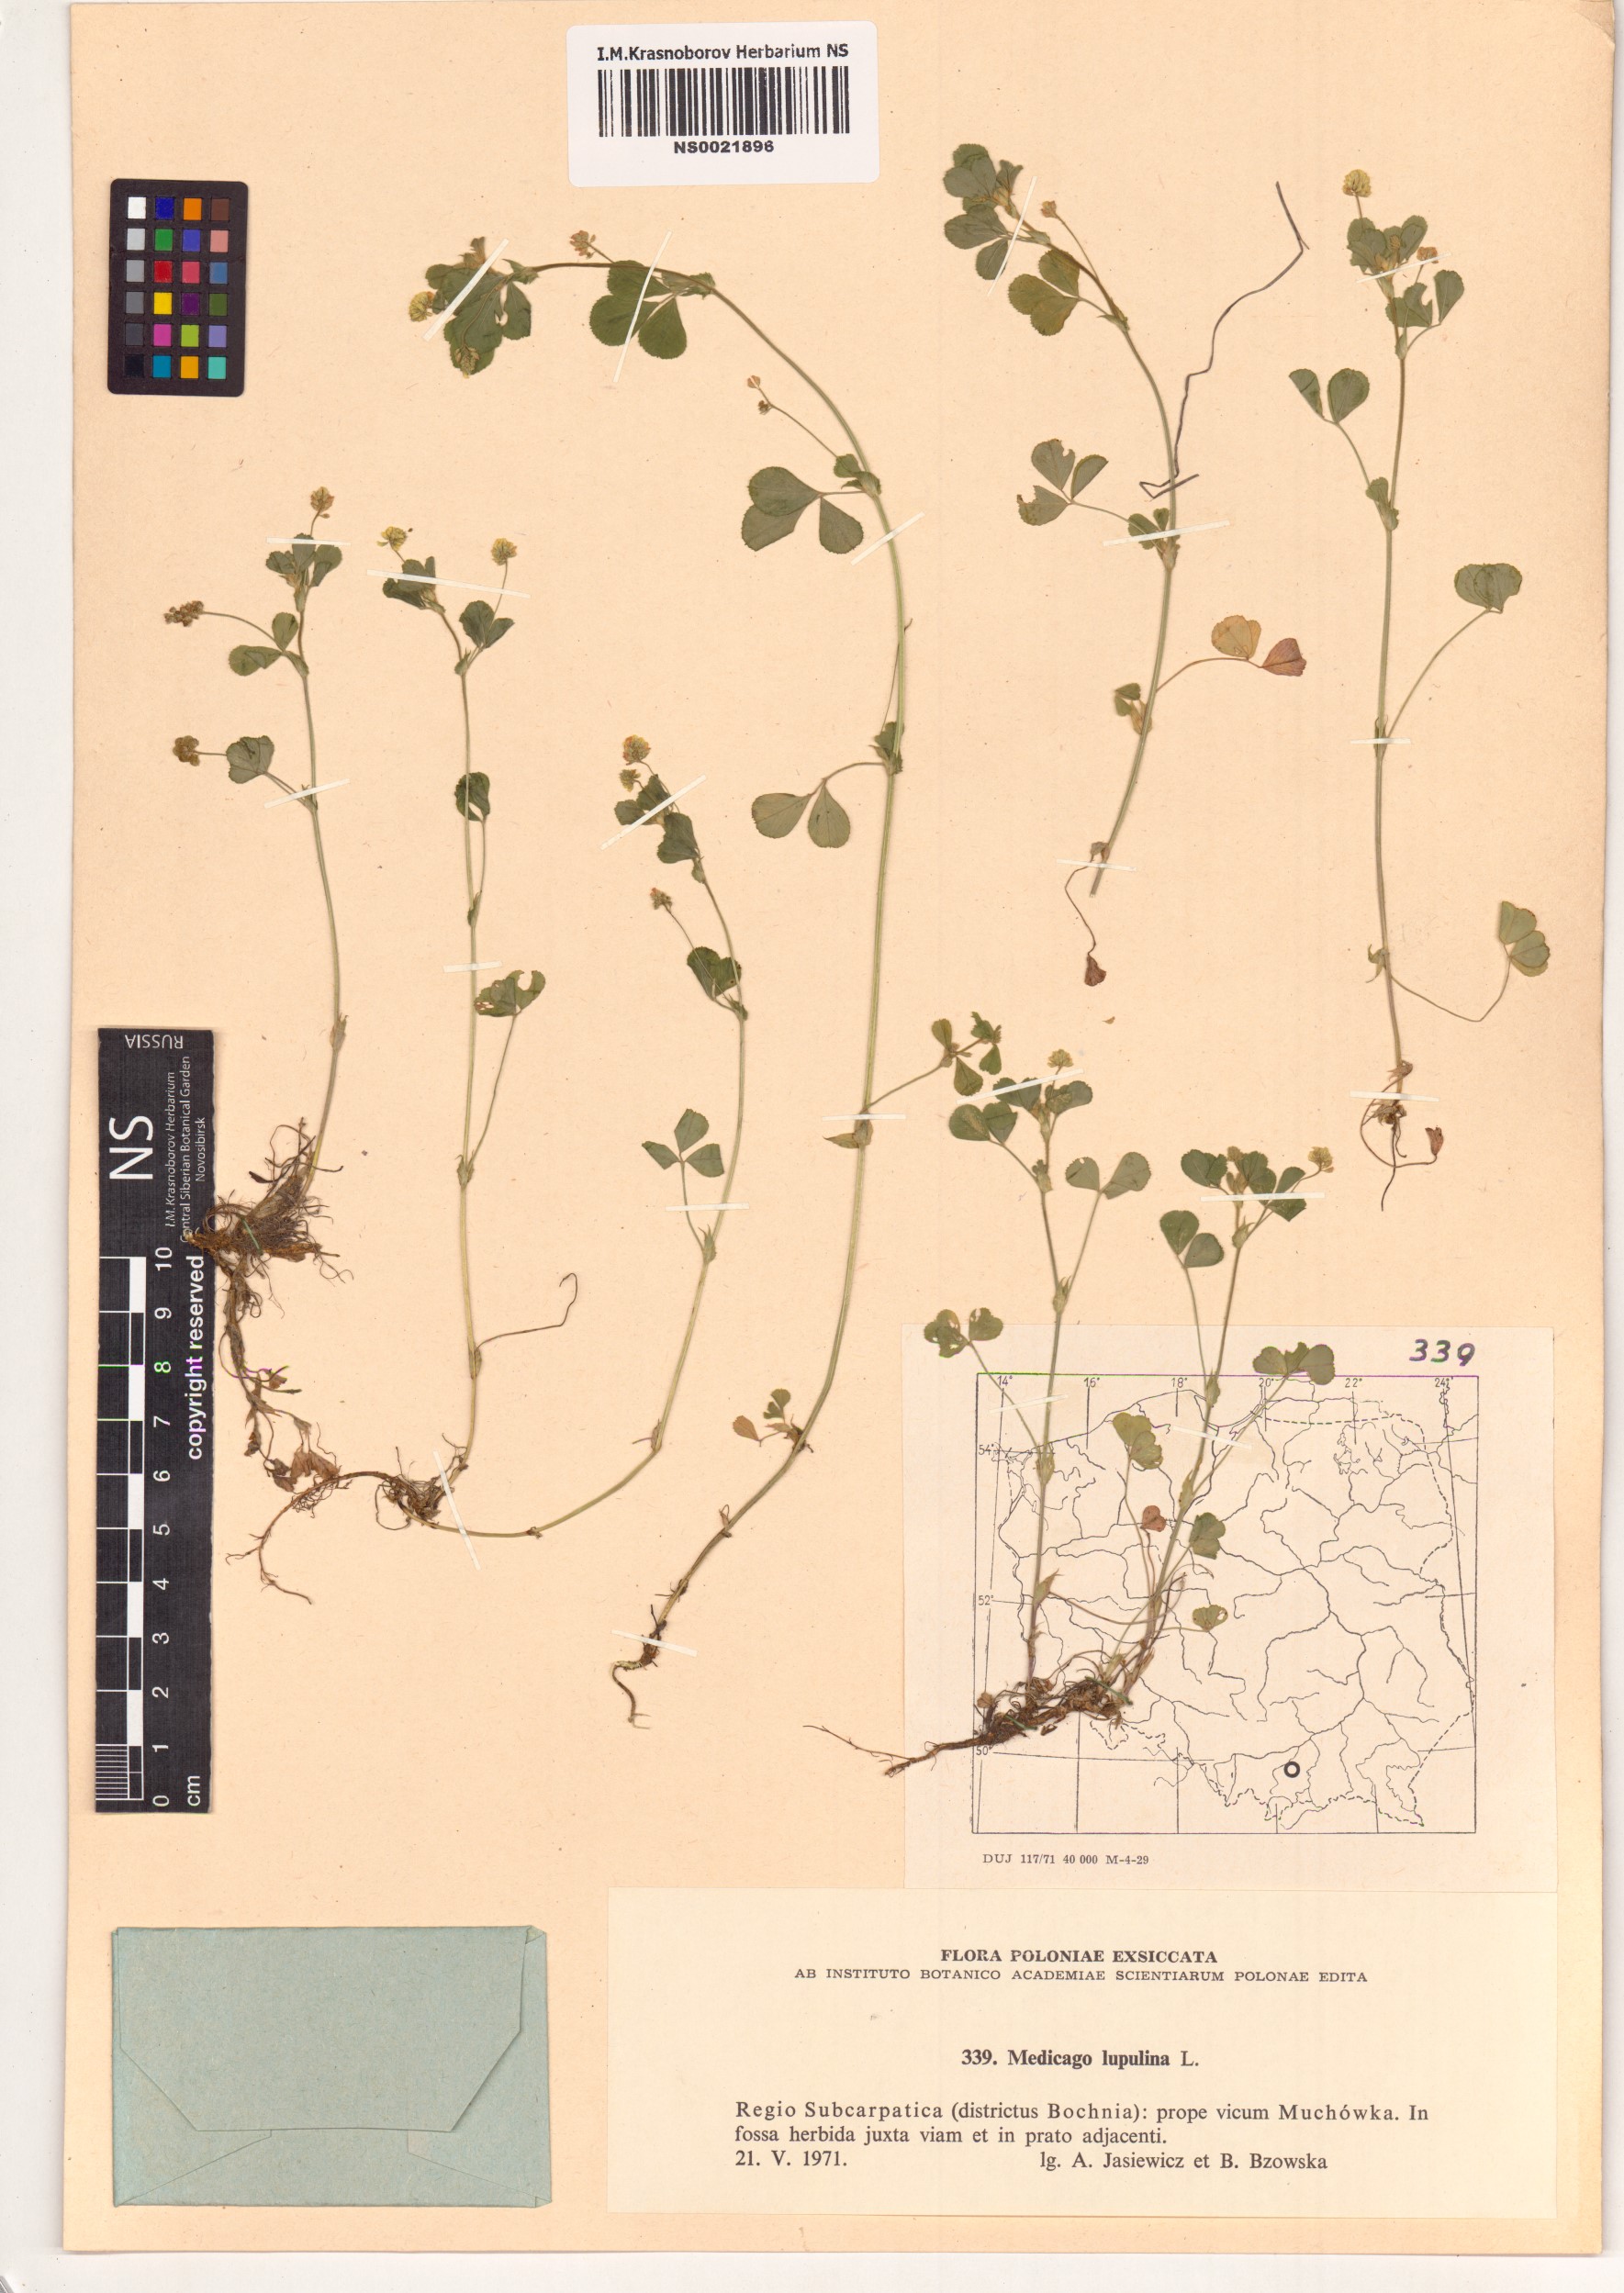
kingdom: Plantae
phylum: Tracheophyta
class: Magnoliopsida
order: Fabales
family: Fabaceae
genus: Medicago
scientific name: Medicago lupulina
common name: Black medick
